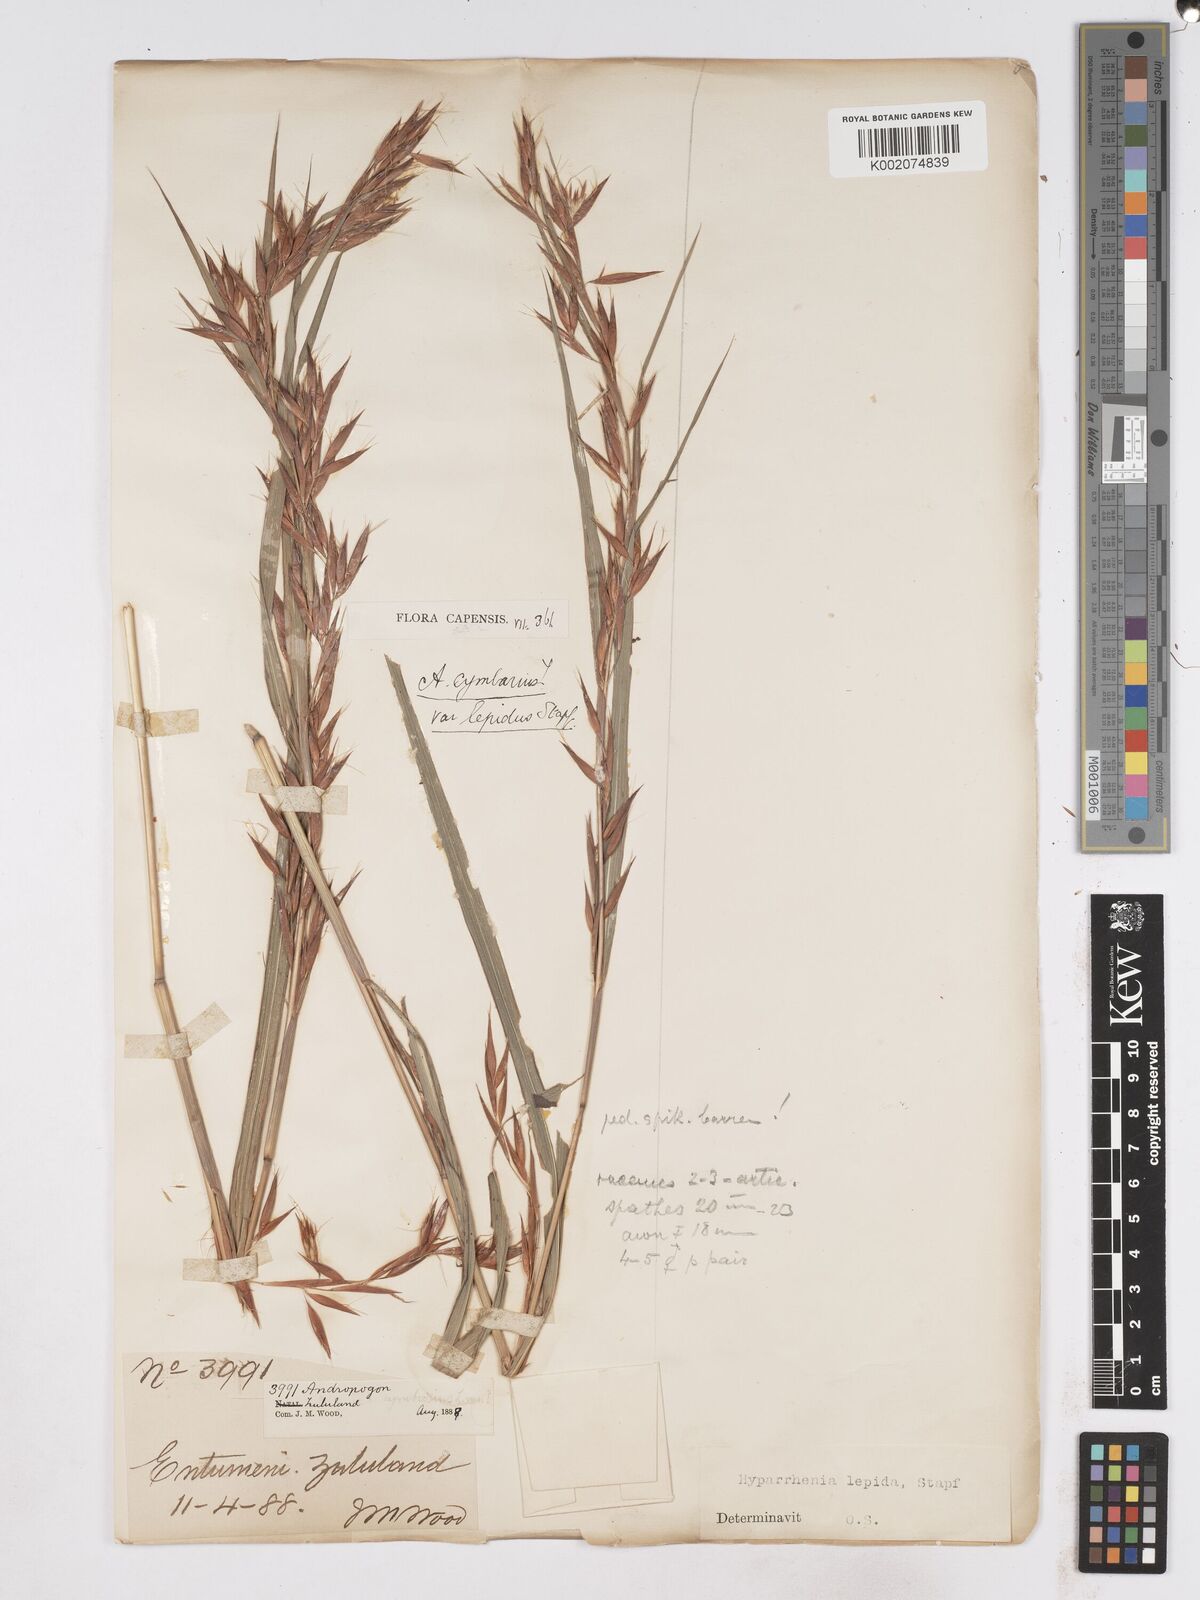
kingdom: Plantae
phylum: Tracheophyta
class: Liliopsida
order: Poales
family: Poaceae
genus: Hyparrhenia
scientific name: Hyparrhenia cymbaria
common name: Boat thatching grass
